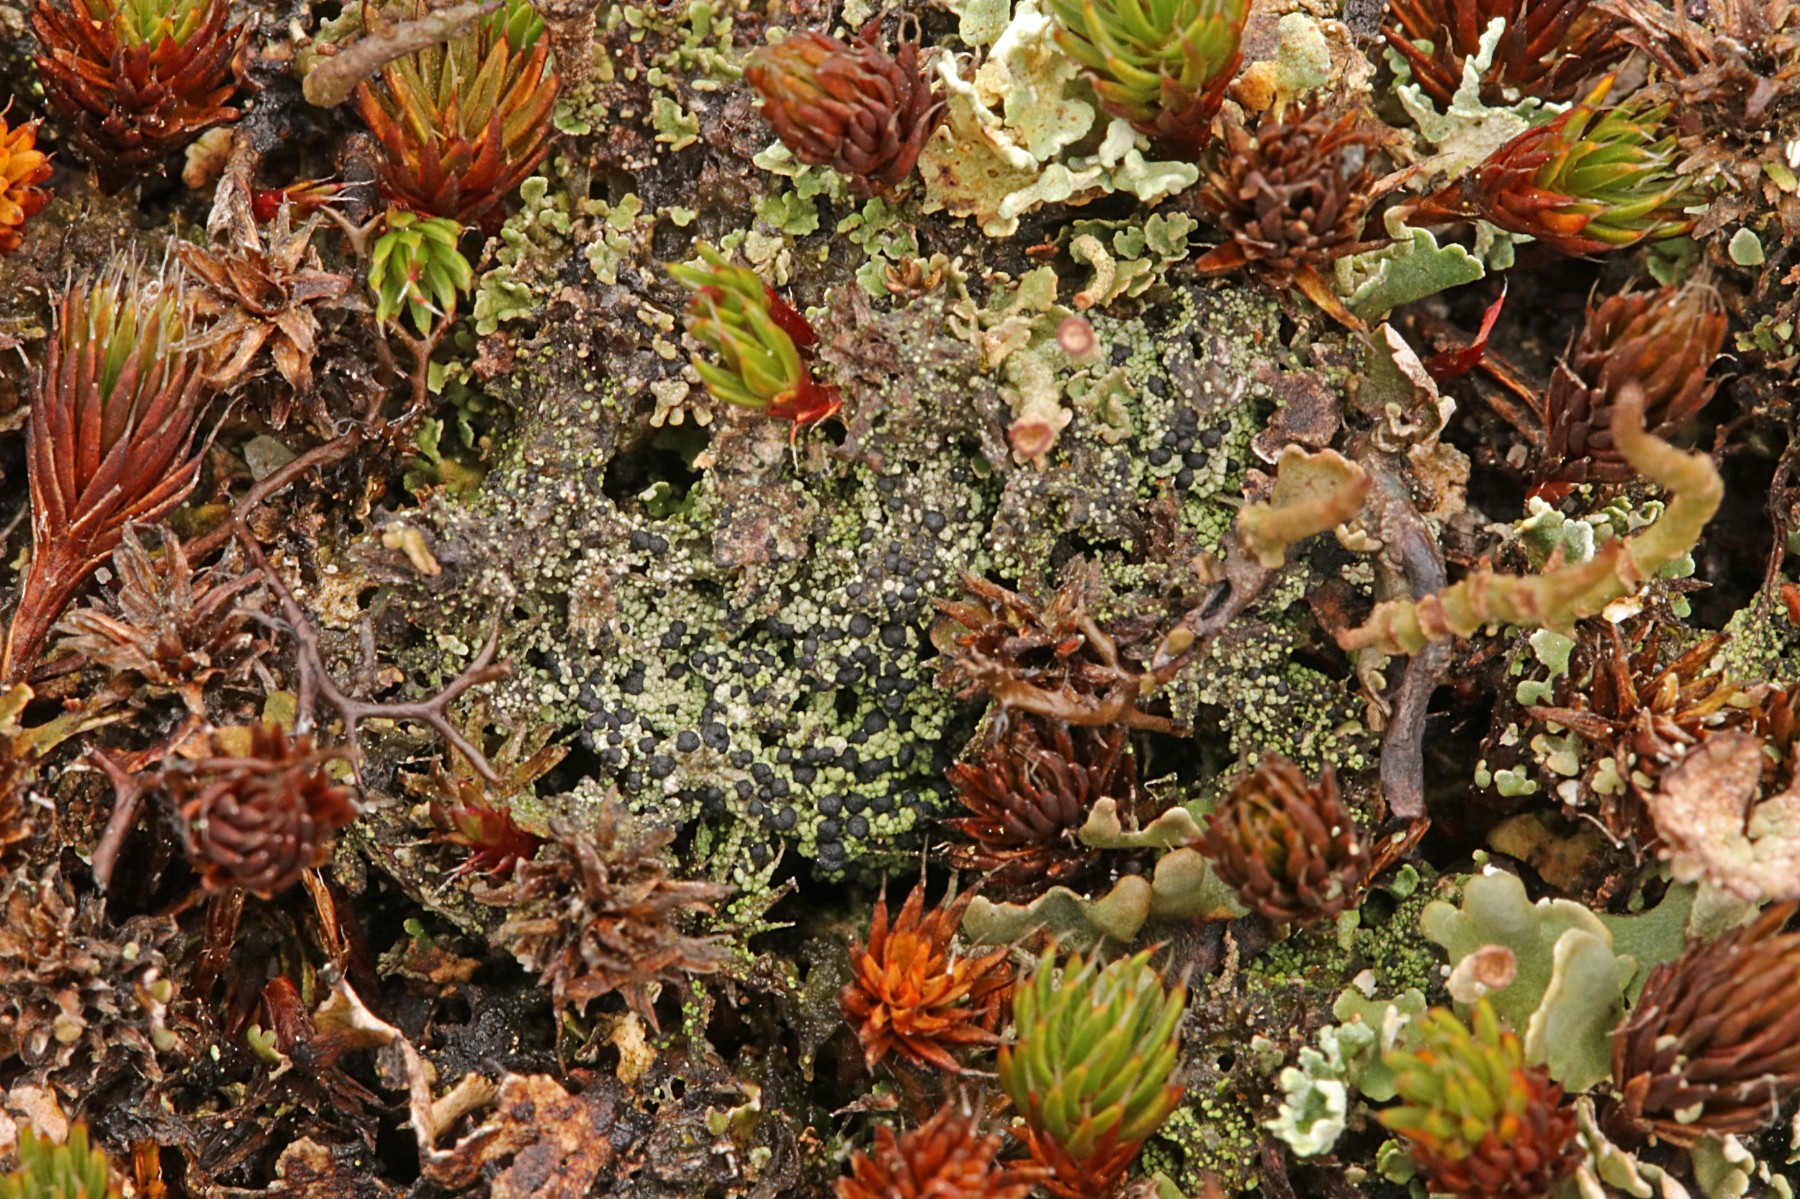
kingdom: Fungi
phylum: Ascomycota
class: Lecanoromycetes
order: Lecanorales
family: Byssolomataceae
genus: Micarea
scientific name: Micarea lignaria
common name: tørve-knaplav
